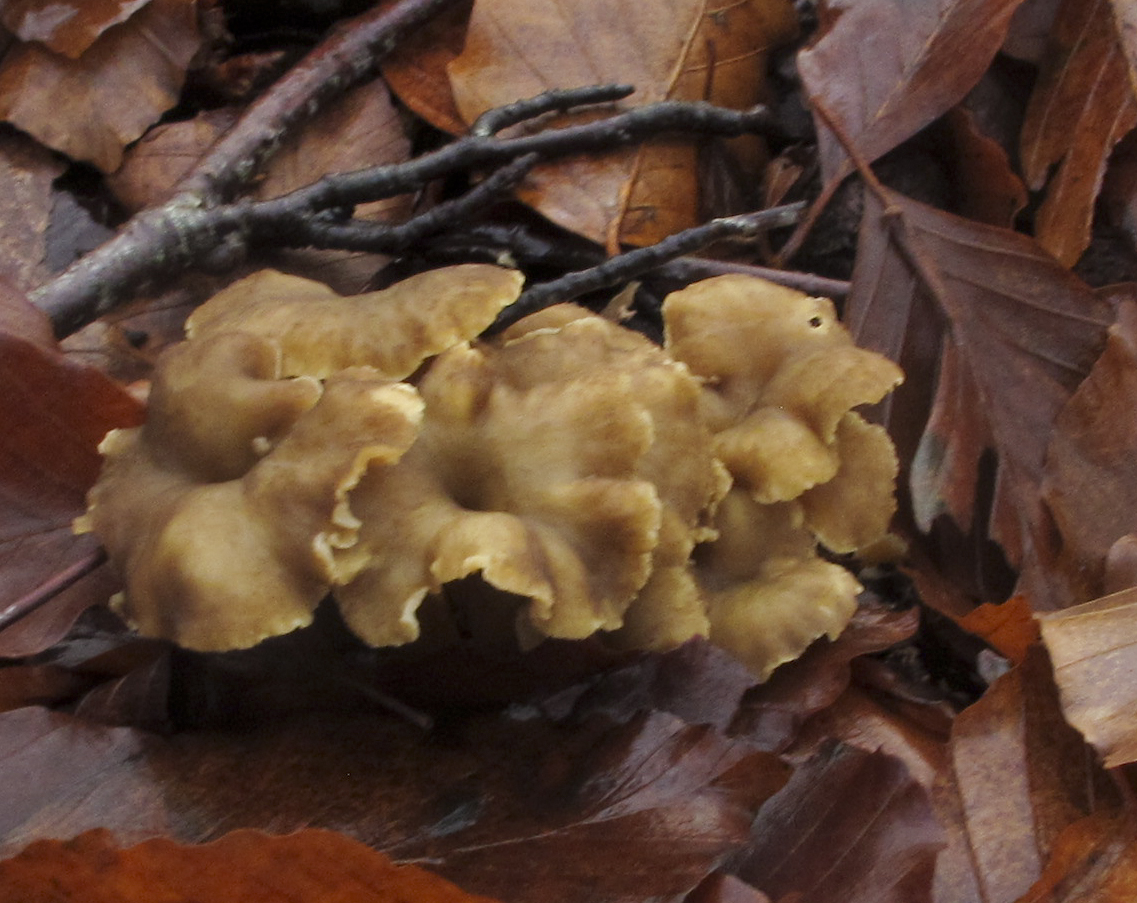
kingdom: Fungi
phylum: Basidiomycota
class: Agaricomycetes
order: Cantharellales
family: Hydnaceae
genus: Craterellus
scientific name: Craterellus tubaeformis
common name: tragt-kantarel
